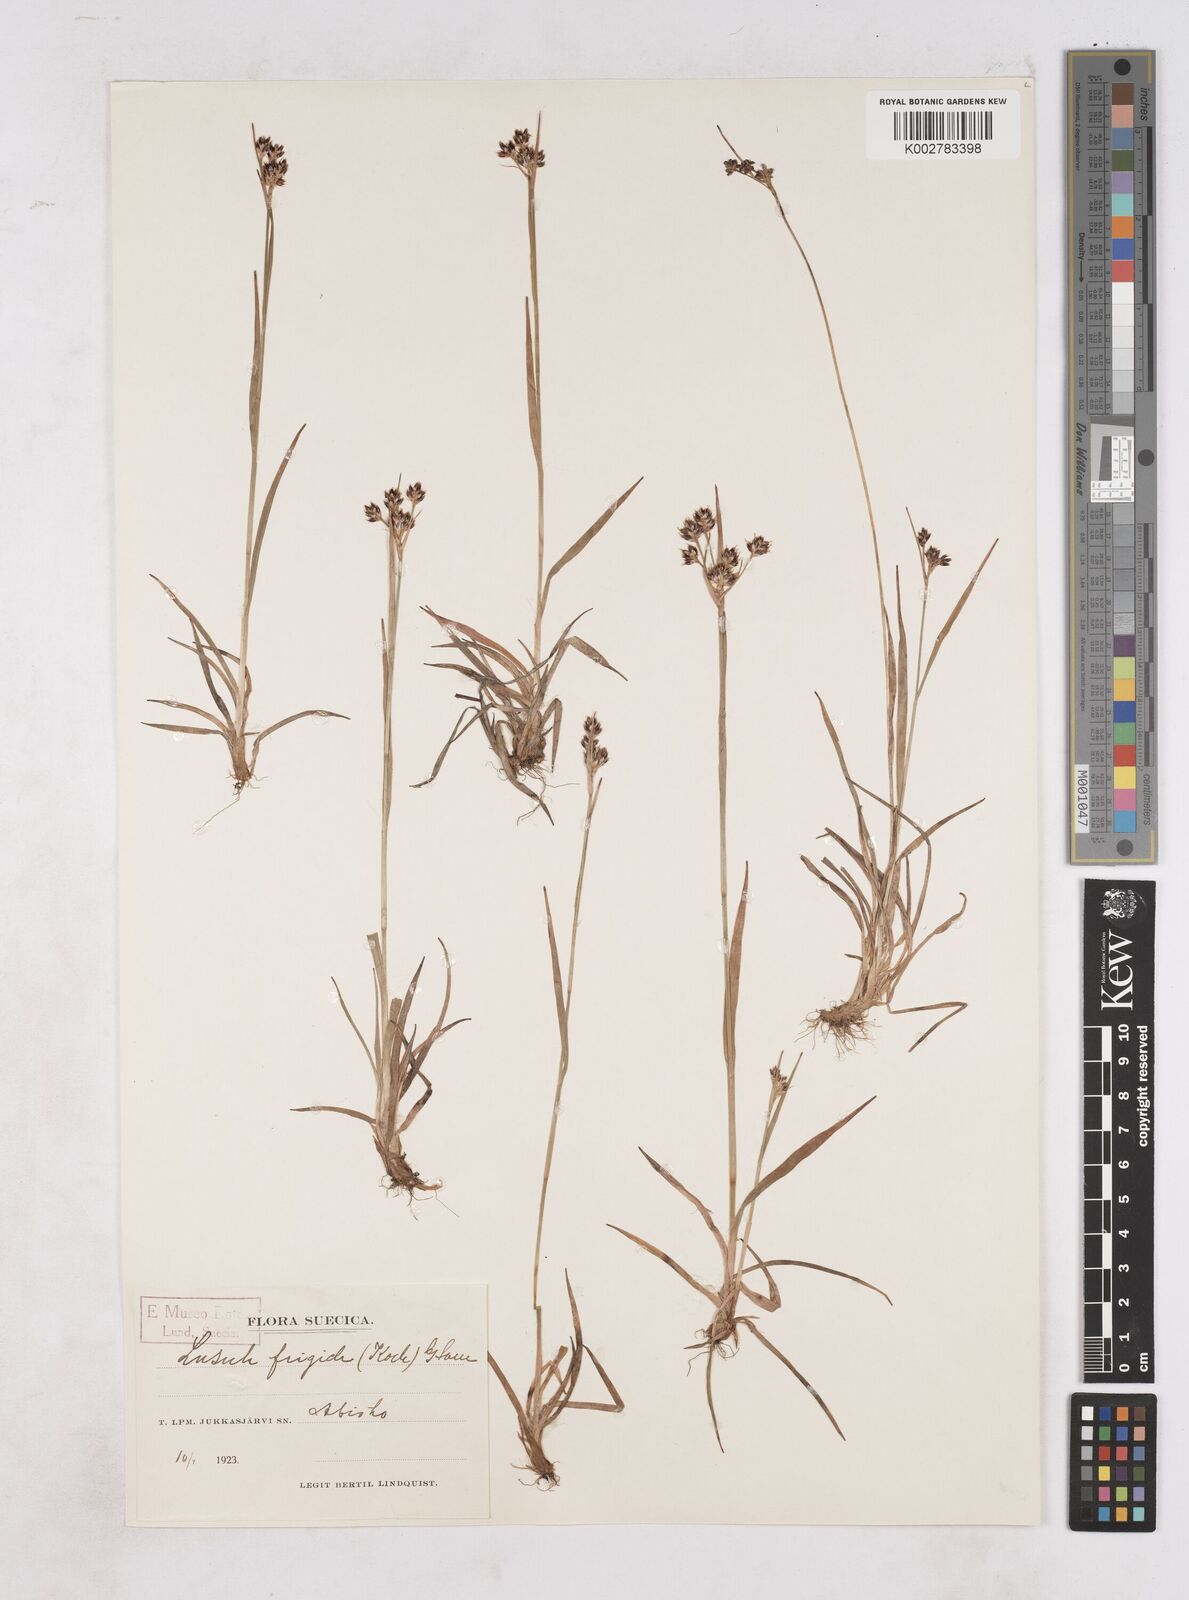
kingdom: Plantae
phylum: Tracheophyta
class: Liliopsida
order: Poales
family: Juncaceae
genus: Luzula
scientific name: Luzula multiflora
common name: Heath wood-rush
